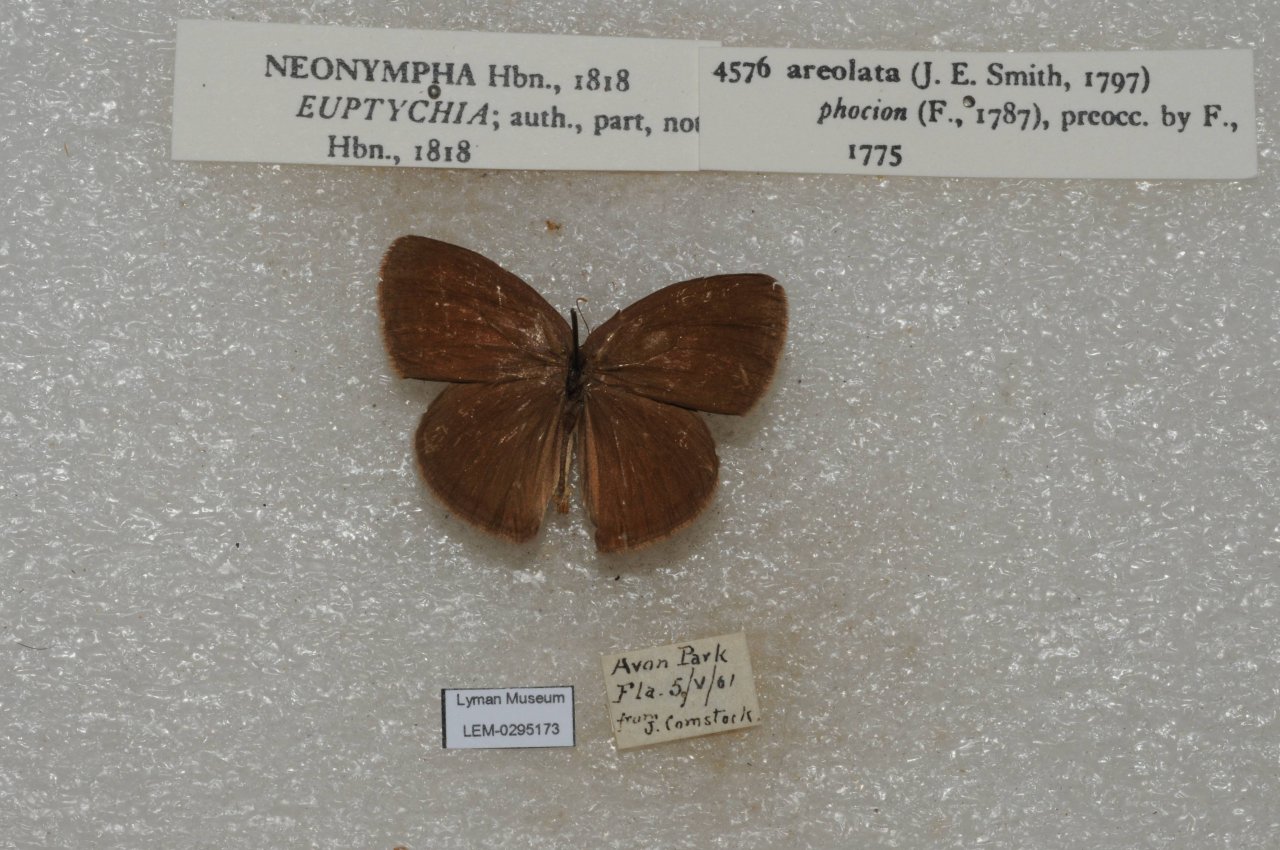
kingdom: Animalia
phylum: Arthropoda
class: Insecta
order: Lepidoptera
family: Nymphalidae
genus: Euptychia
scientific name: Euptychia phocion
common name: Georgia Satyr
